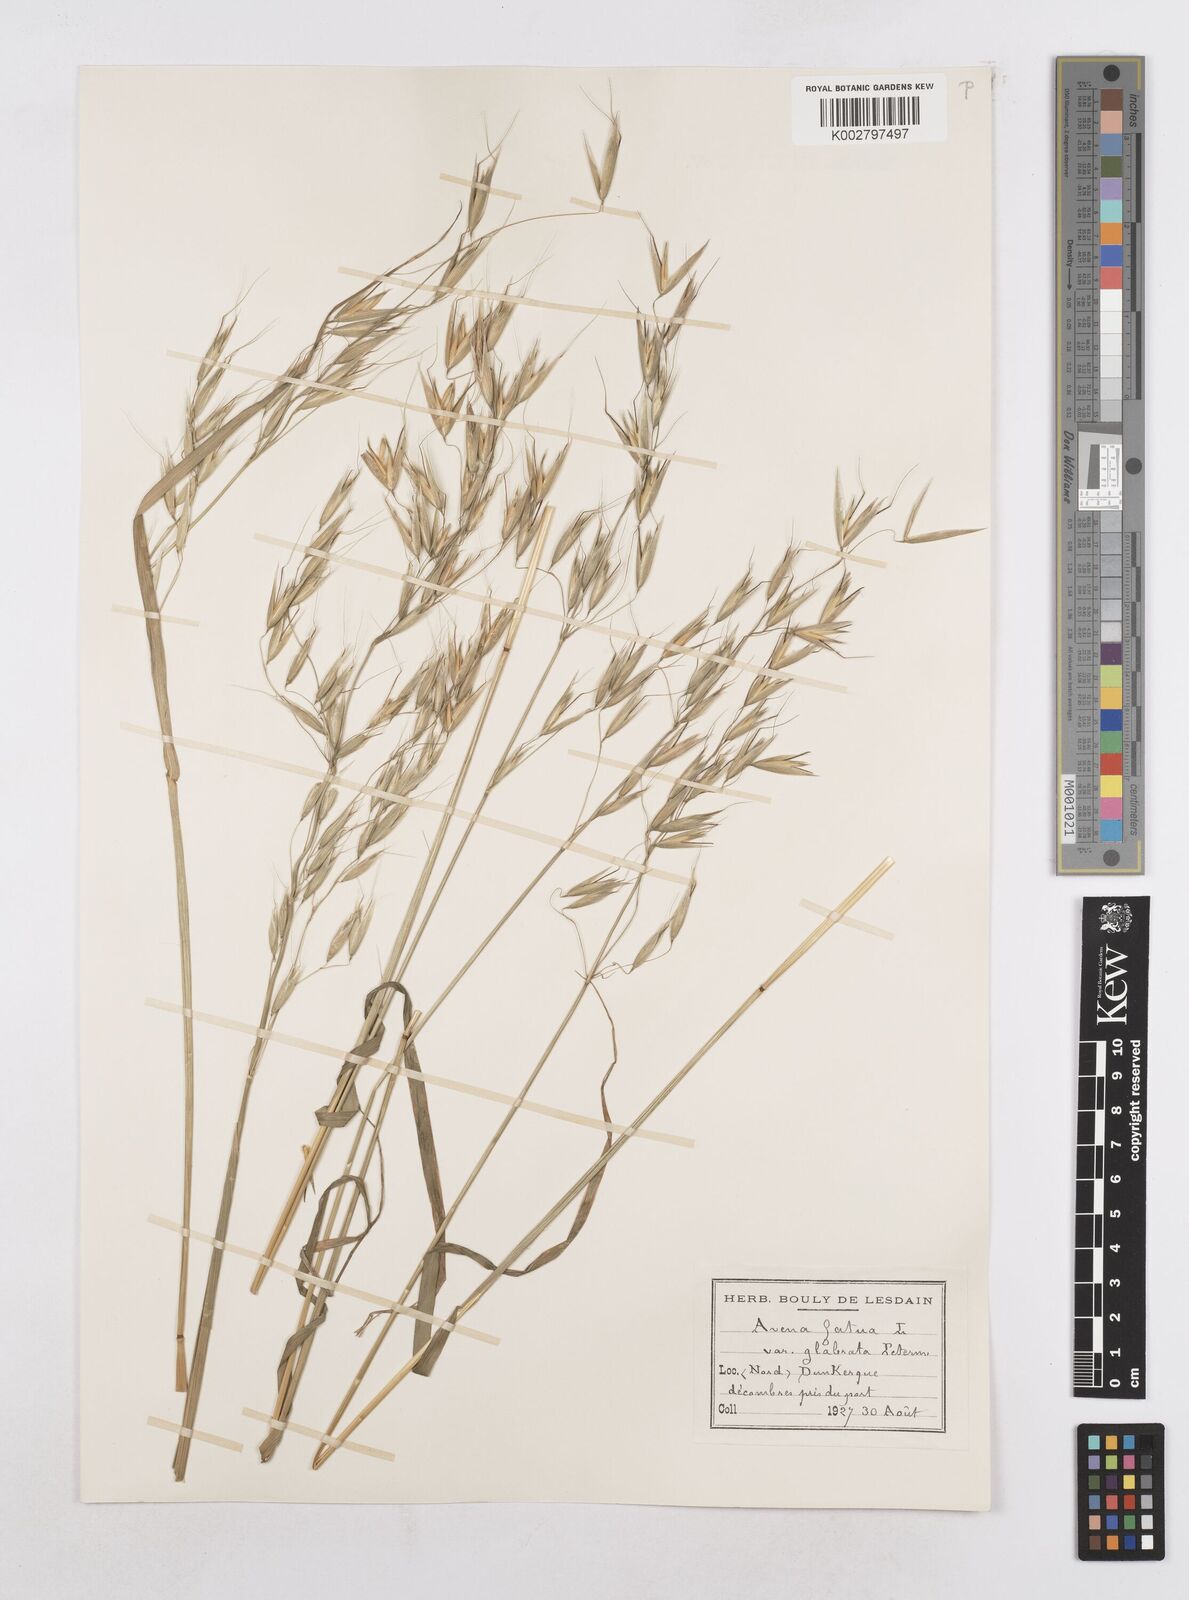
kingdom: Plantae
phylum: Tracheophyta
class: Liliopsida
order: Poales
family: Poaceae
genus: Avena
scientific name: Avena fatua
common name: Wild oat
